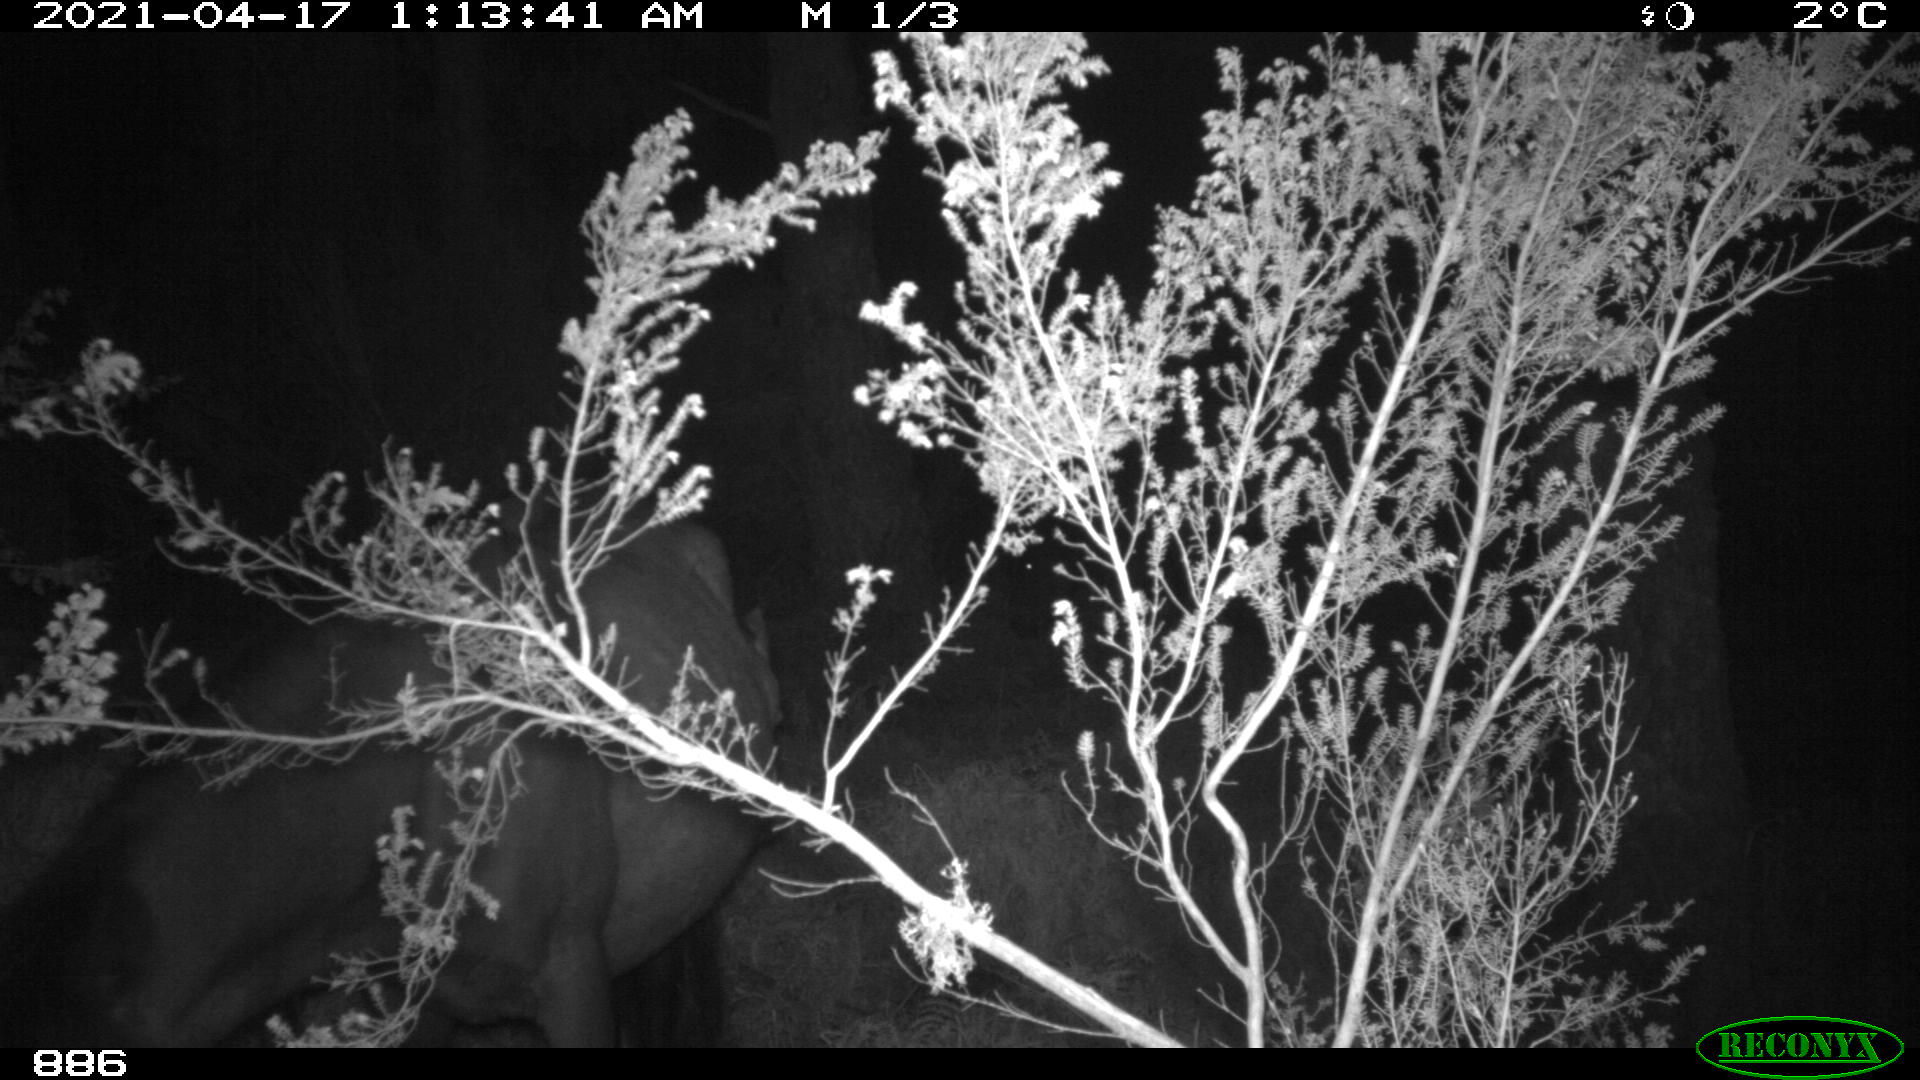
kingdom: Animalia
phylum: Chordata
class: Mammalia
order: Perissodactyla
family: Equidae
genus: Equus
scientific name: Equus caballus
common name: Horse
